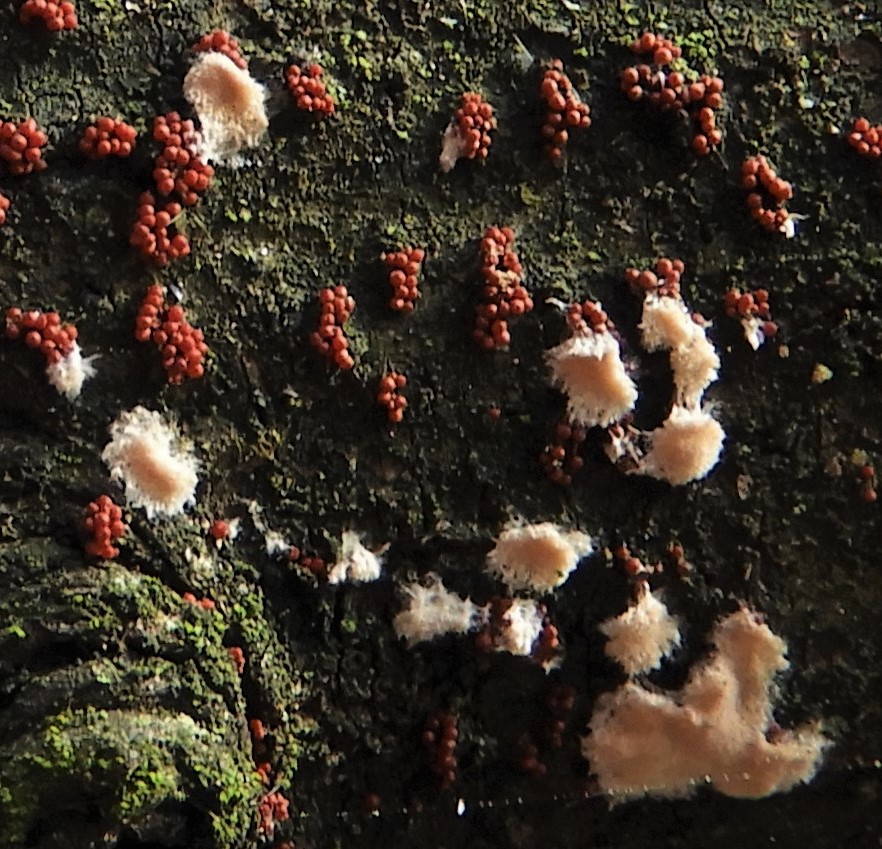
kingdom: Fungi
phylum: Basidiomycota
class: Agaricomycetes
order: Agaricales
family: Physalacriaceae
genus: Cylindrobasidium
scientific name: Cylindrobasidium evolvens
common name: sprækkehinde
